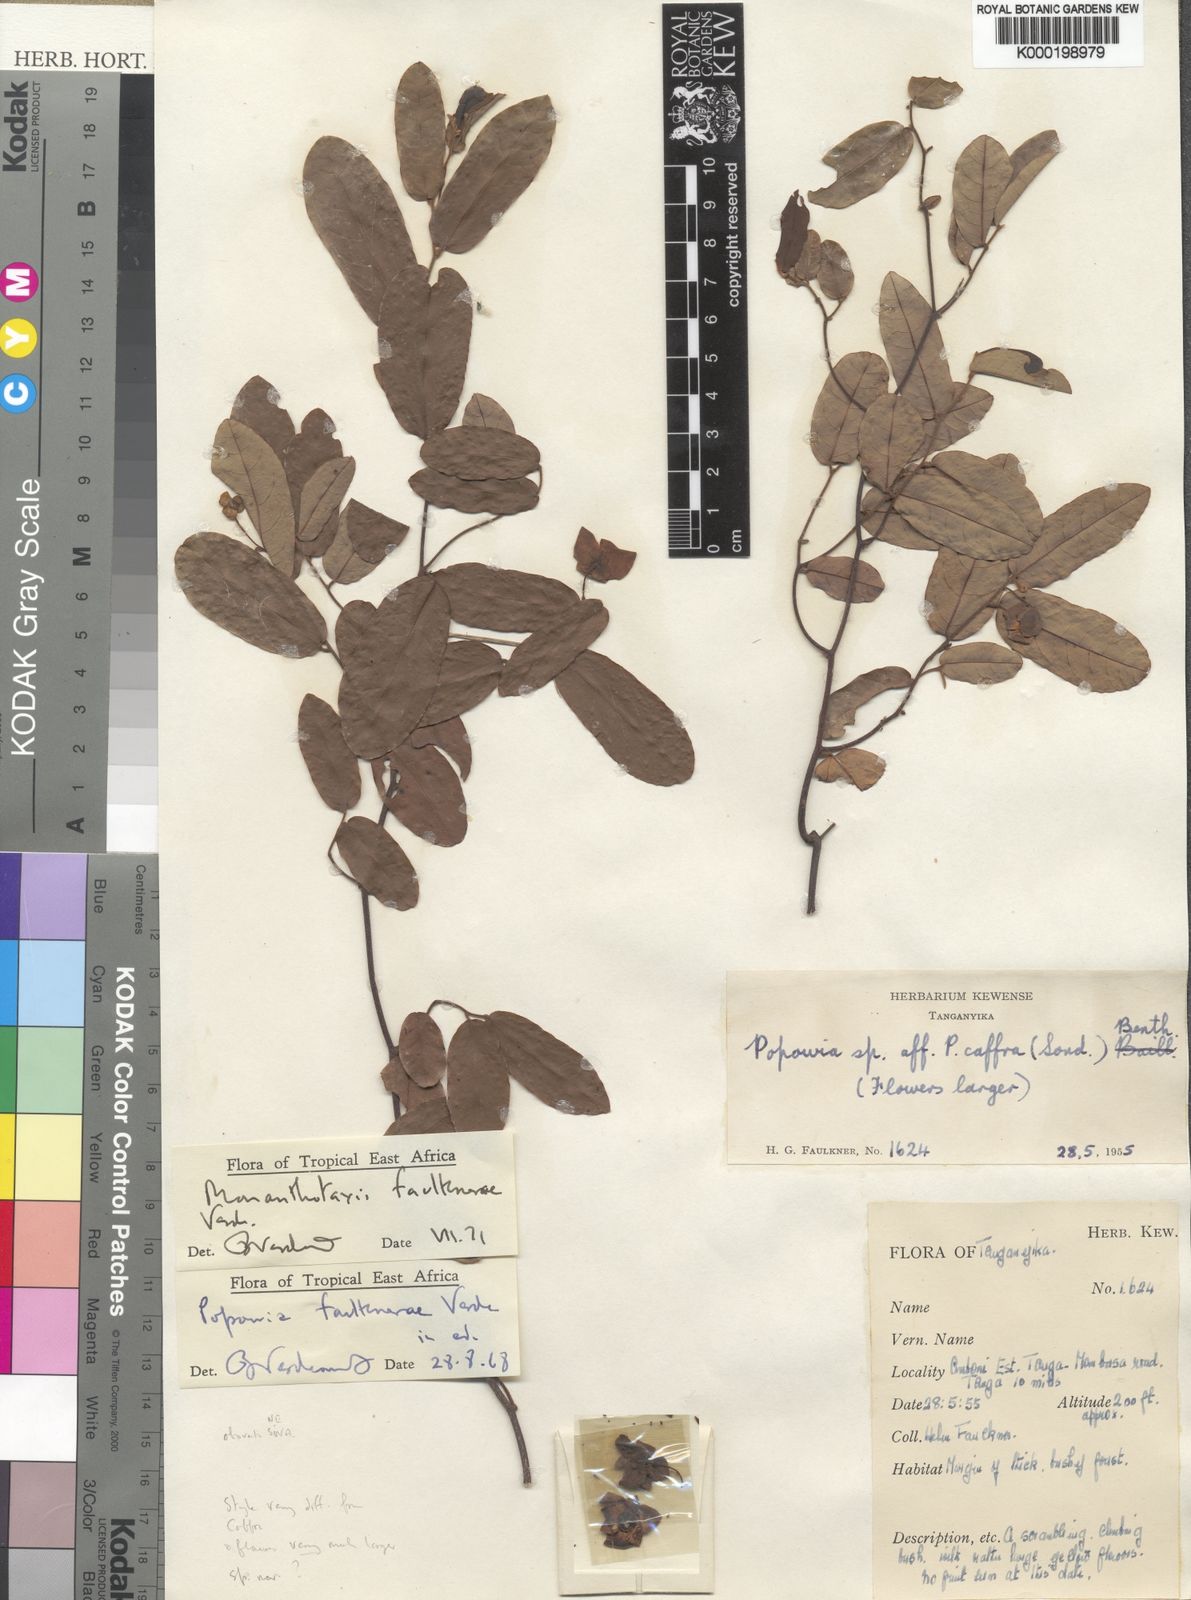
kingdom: Plantae
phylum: Tracheophyta
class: Magnoliopsida
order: Magnoliales
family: Annonaceae
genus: Monanthotaxis
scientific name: Monanthotaxis faulknerae
